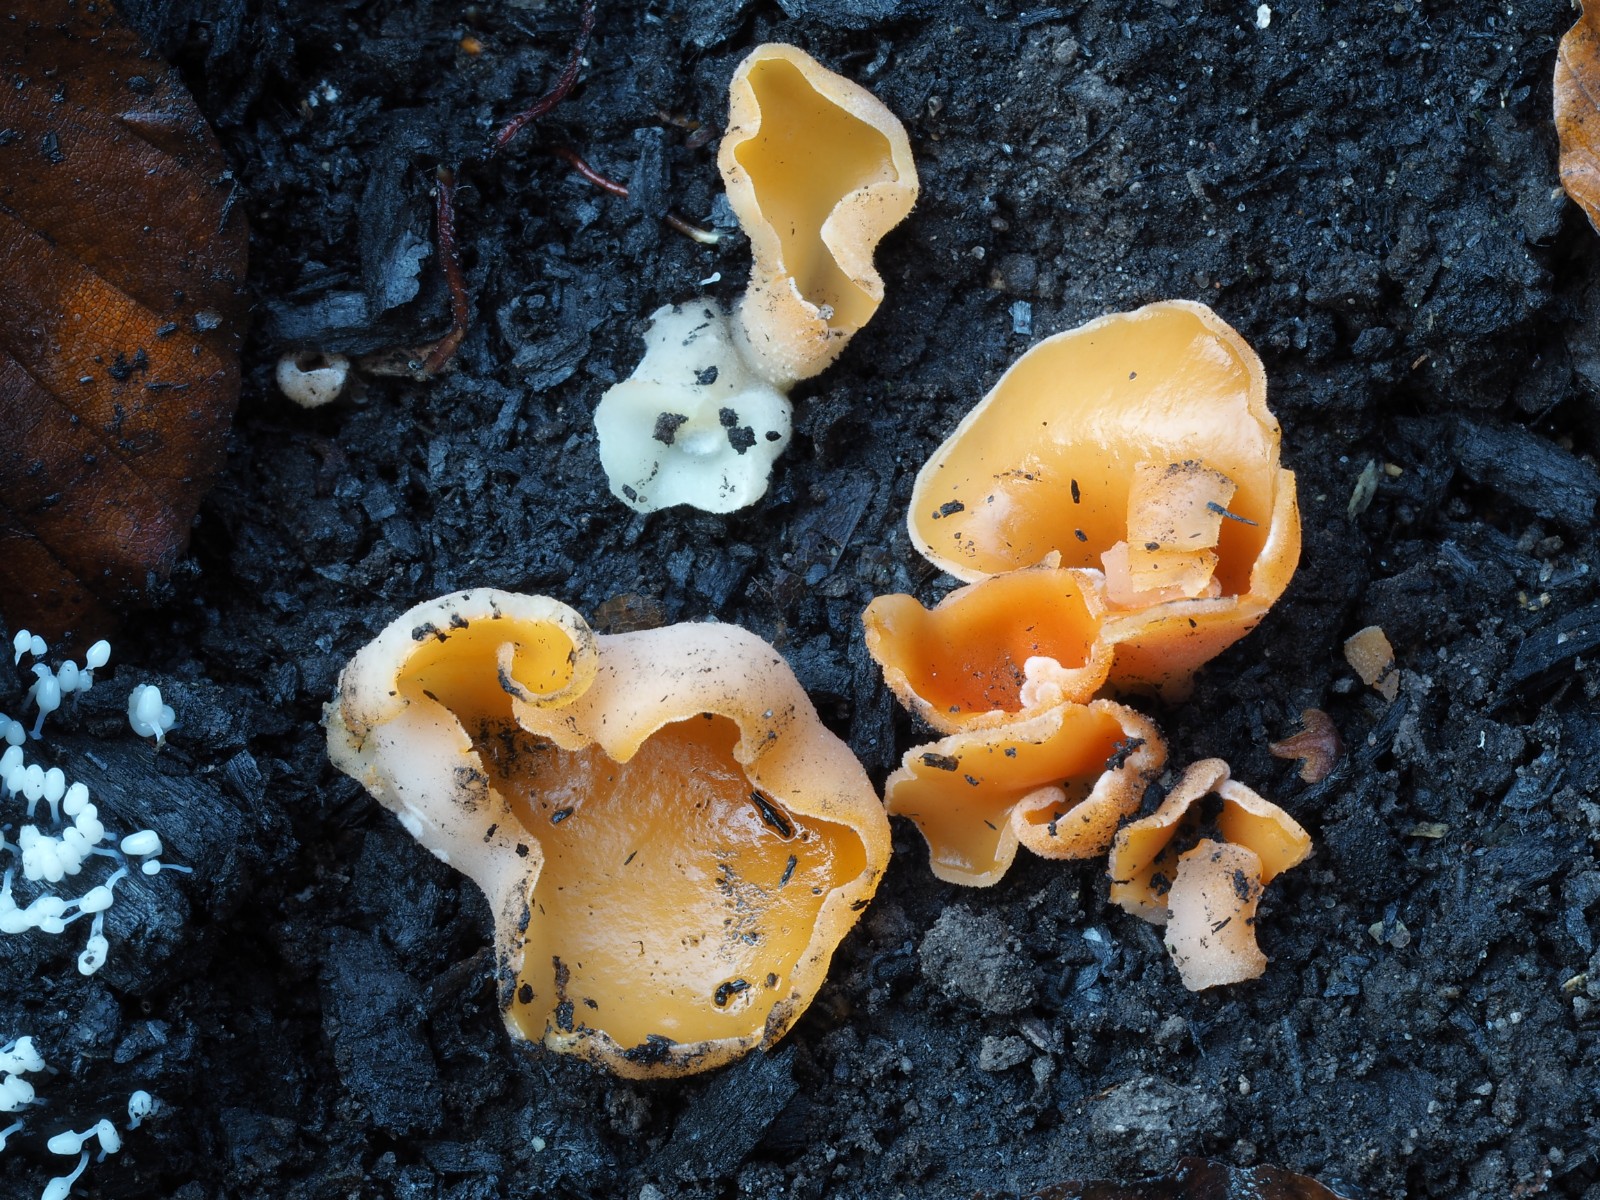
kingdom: Fungi
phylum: Ascomycota
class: Pezizomycetes
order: Pezizales
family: Pyronemataceae
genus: Aleuria
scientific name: Aleuria aurantia
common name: almindelig orangebæger
